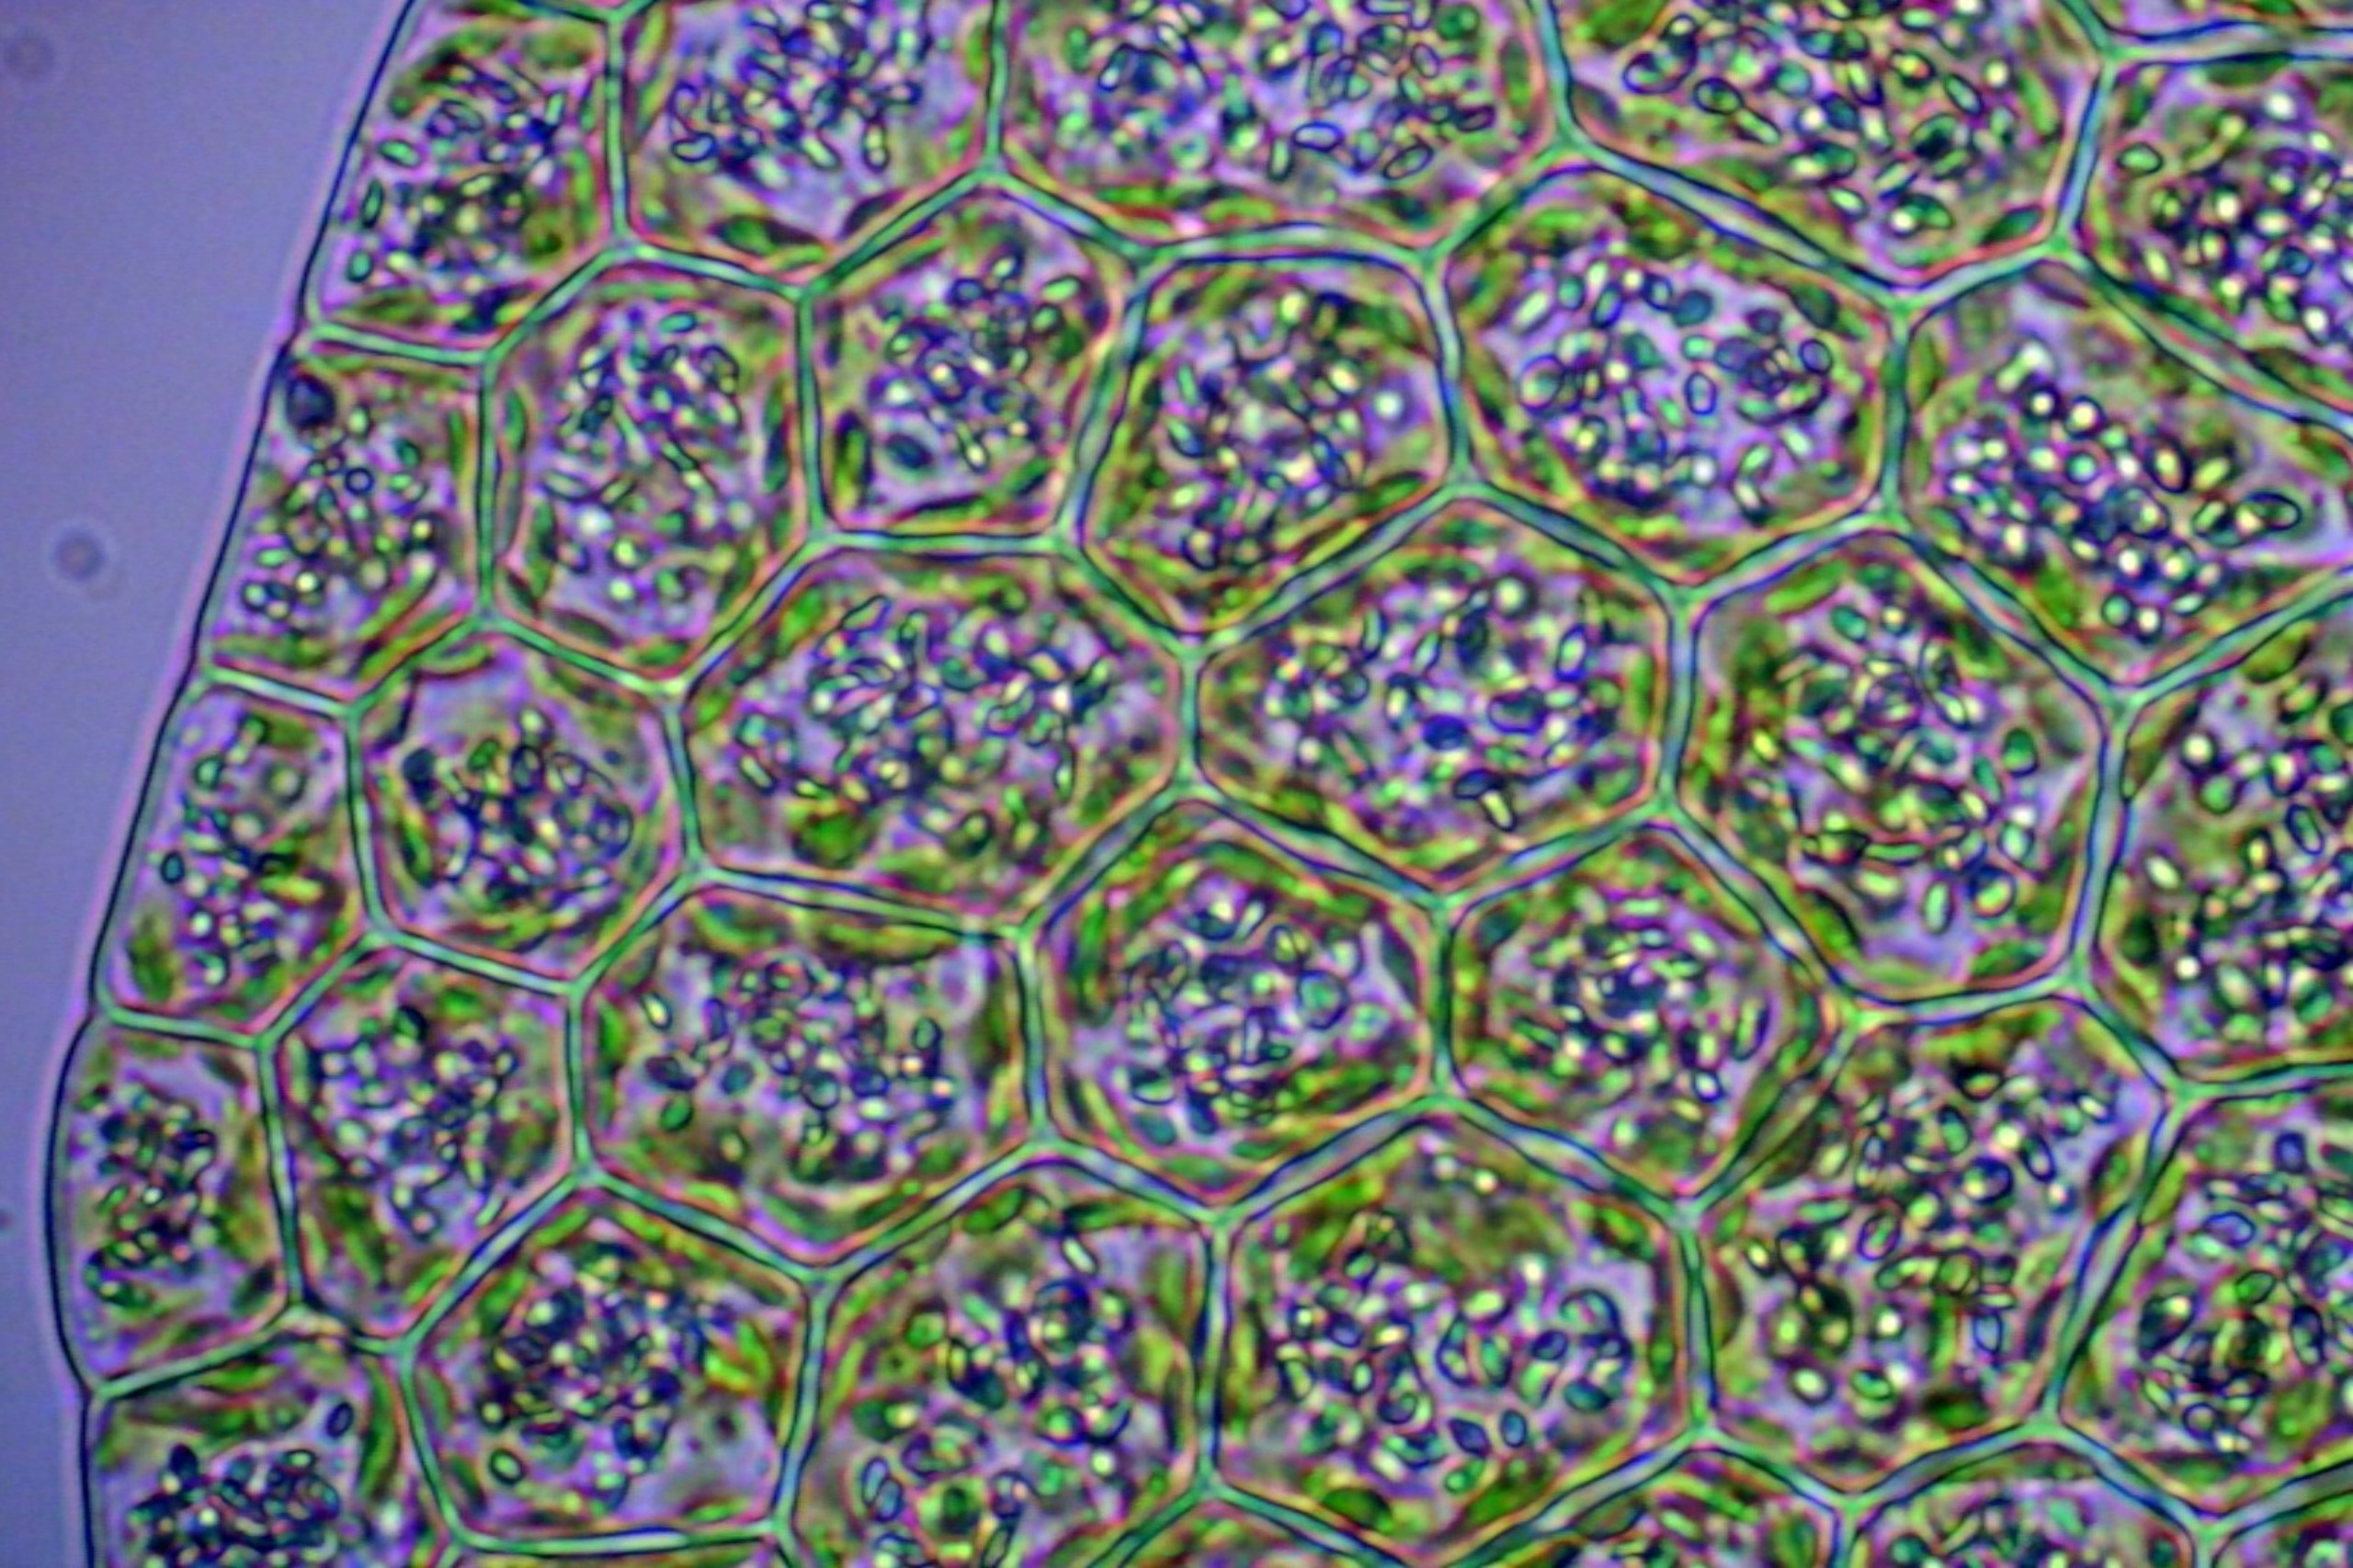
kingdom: Plantae
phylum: Marchantiophyta
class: Jungermanniopsida
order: Porellales
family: Lejeuneaceae
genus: Lejeunea
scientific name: Lejeunea cavifolia
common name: Bæk-skulderbæger
